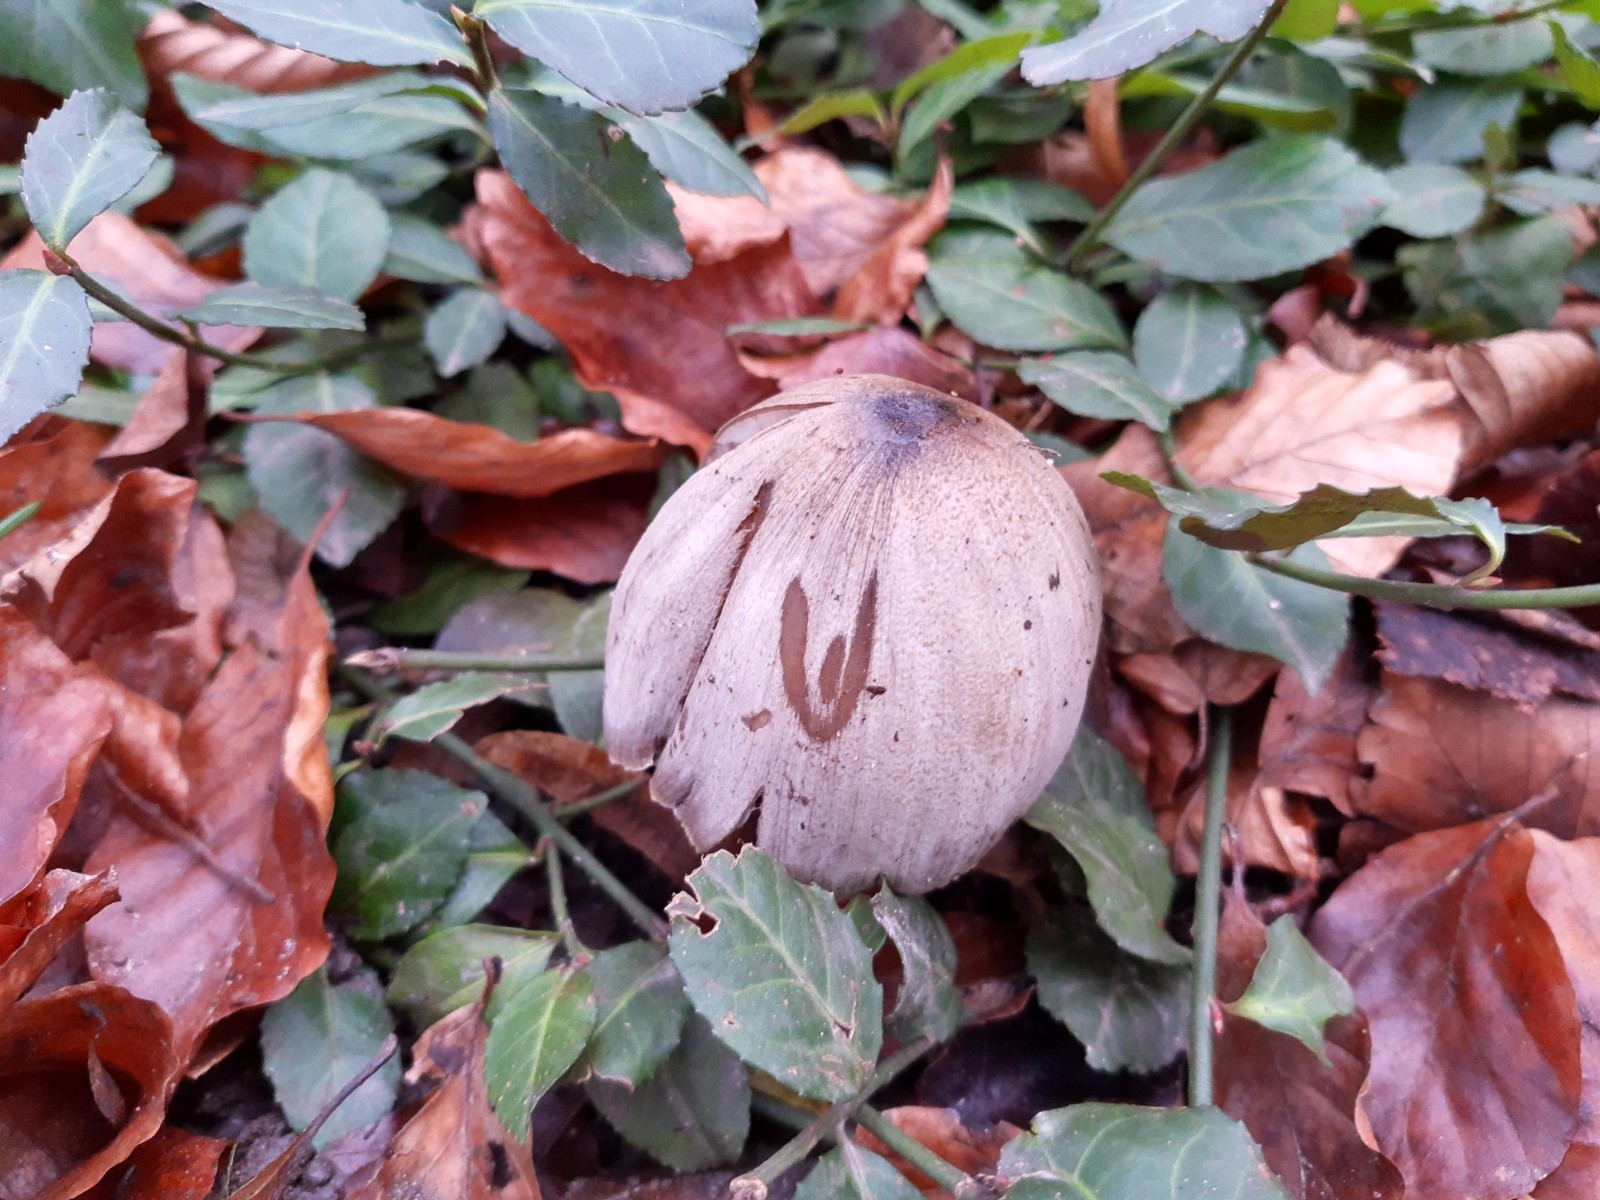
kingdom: Fungi
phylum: Basidiomycota
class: Agaricomycetes
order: Agaricales
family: Psathyrellaceae
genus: Coprinopsis
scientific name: Coprinopsis atramentaria
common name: almindelig blækhat
